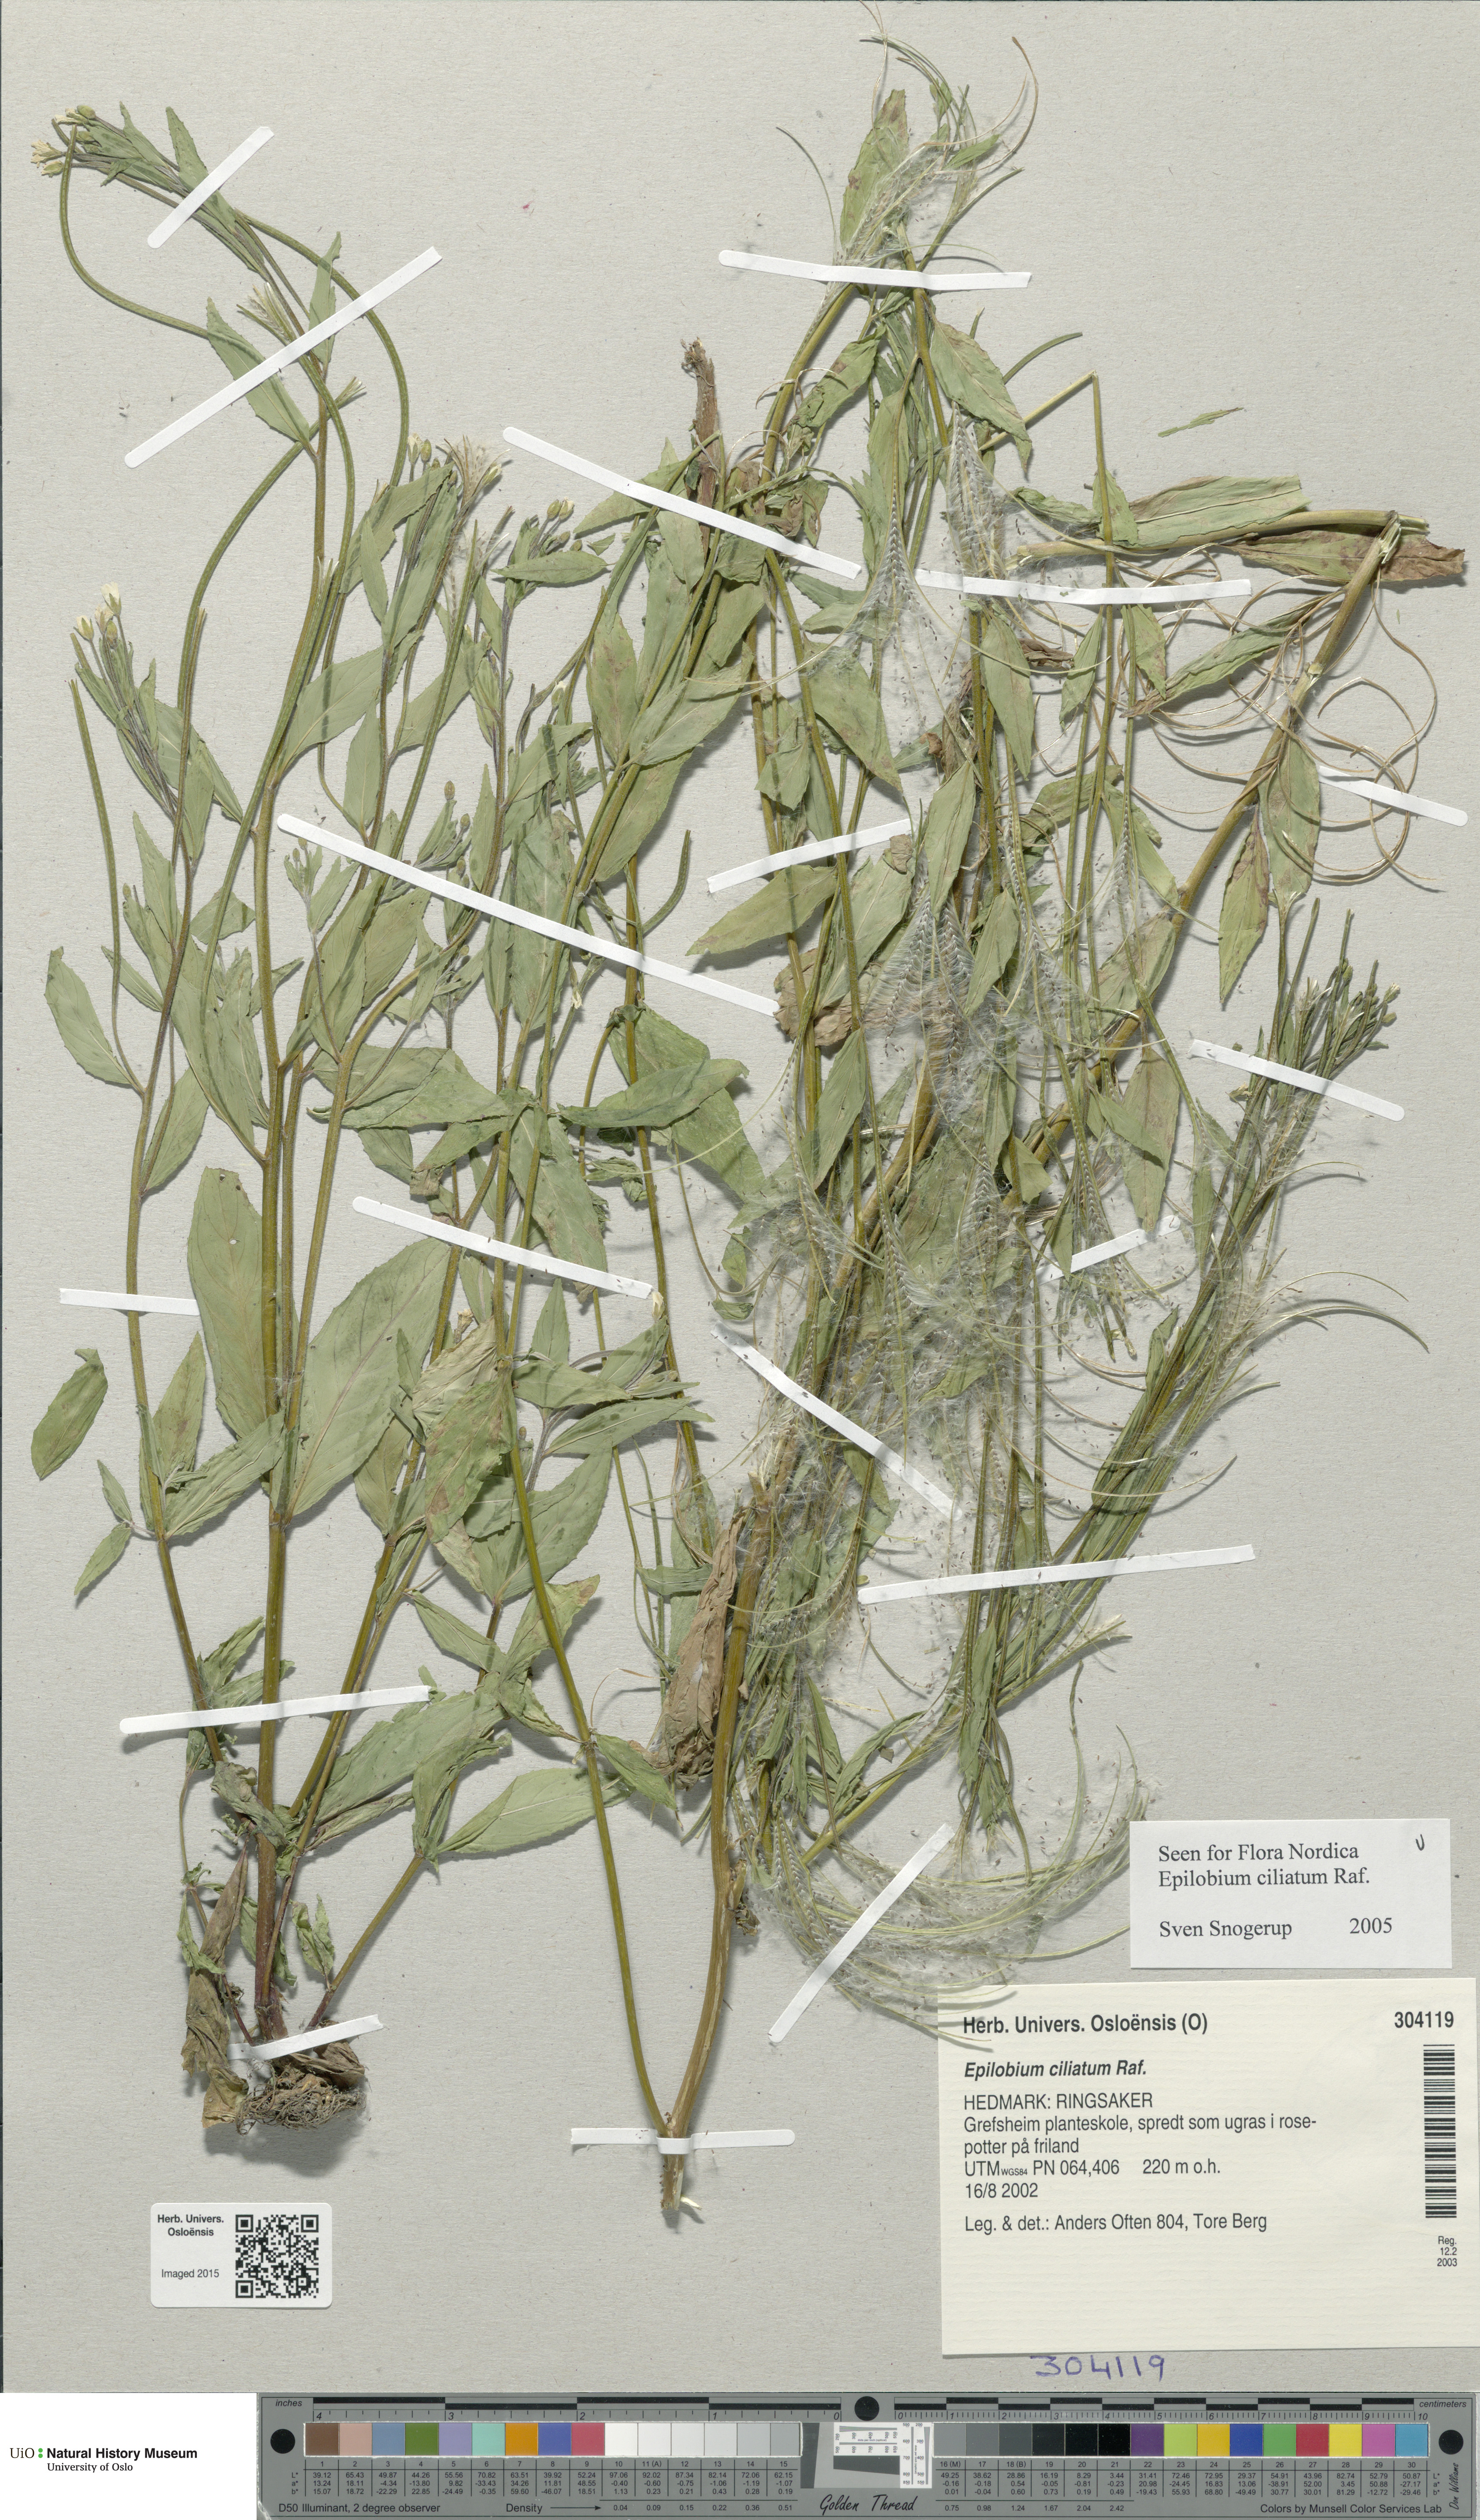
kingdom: Plantae
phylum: Tracheophyta
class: Magnoliopsida
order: Myrtales
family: Onagraceae
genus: Epilobium
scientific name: Epilobium ciliatum
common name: American willowherb
